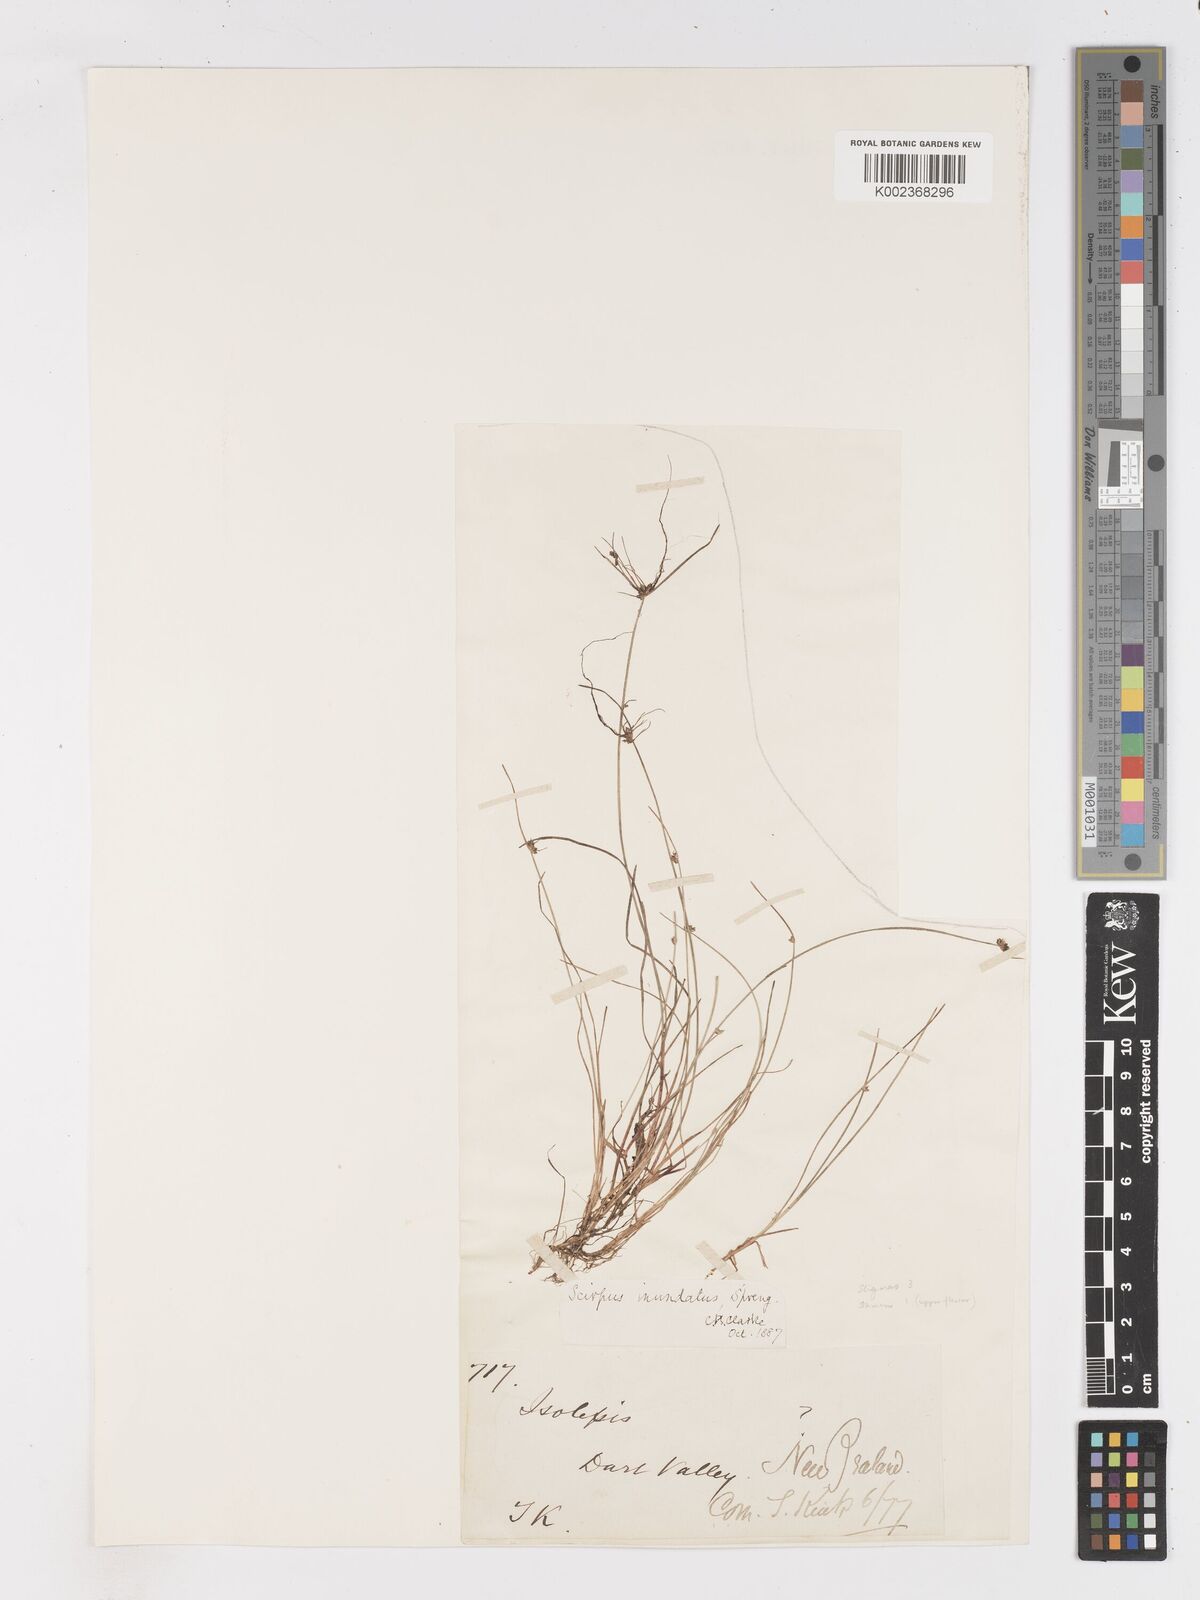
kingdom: Plantae
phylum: Tracheophyta
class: Liliopsida
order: Poales
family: Cyperaceae
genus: Isolepis
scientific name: Isolepis inundata
